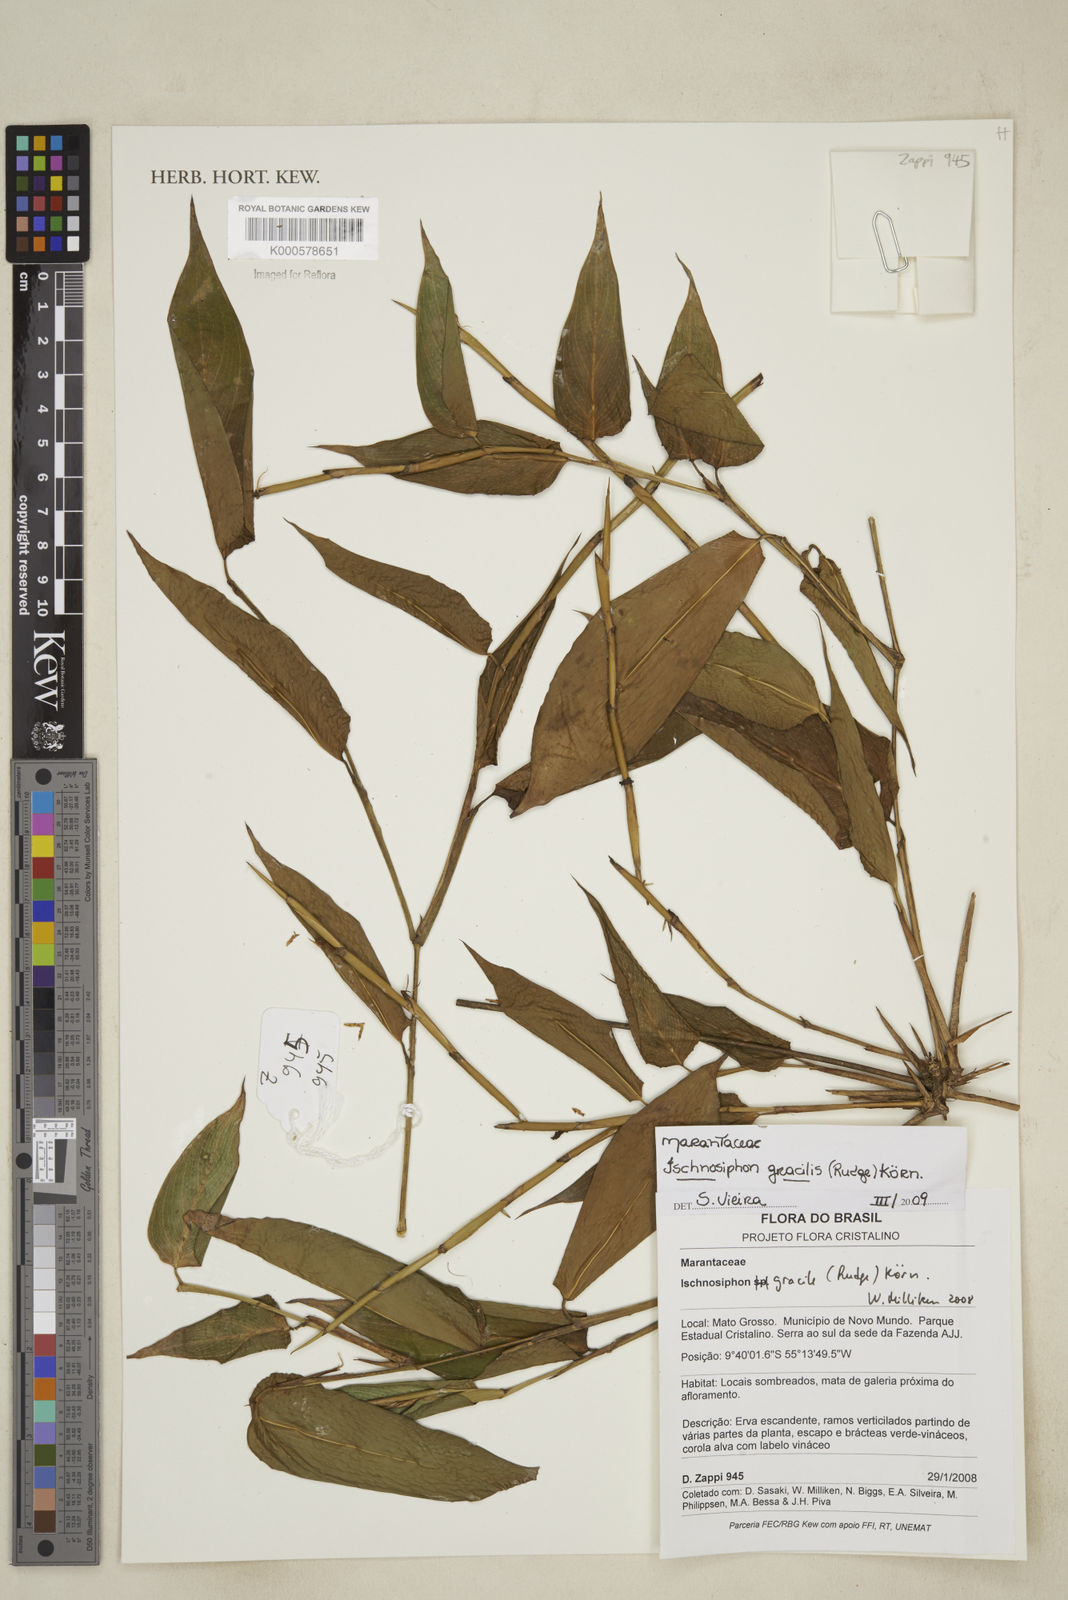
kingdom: Plantae
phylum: Tracheophyta
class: Liliopsida
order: Zingiberales
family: Marantaceae
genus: Ischnosiphon
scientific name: Ischnosiphon
